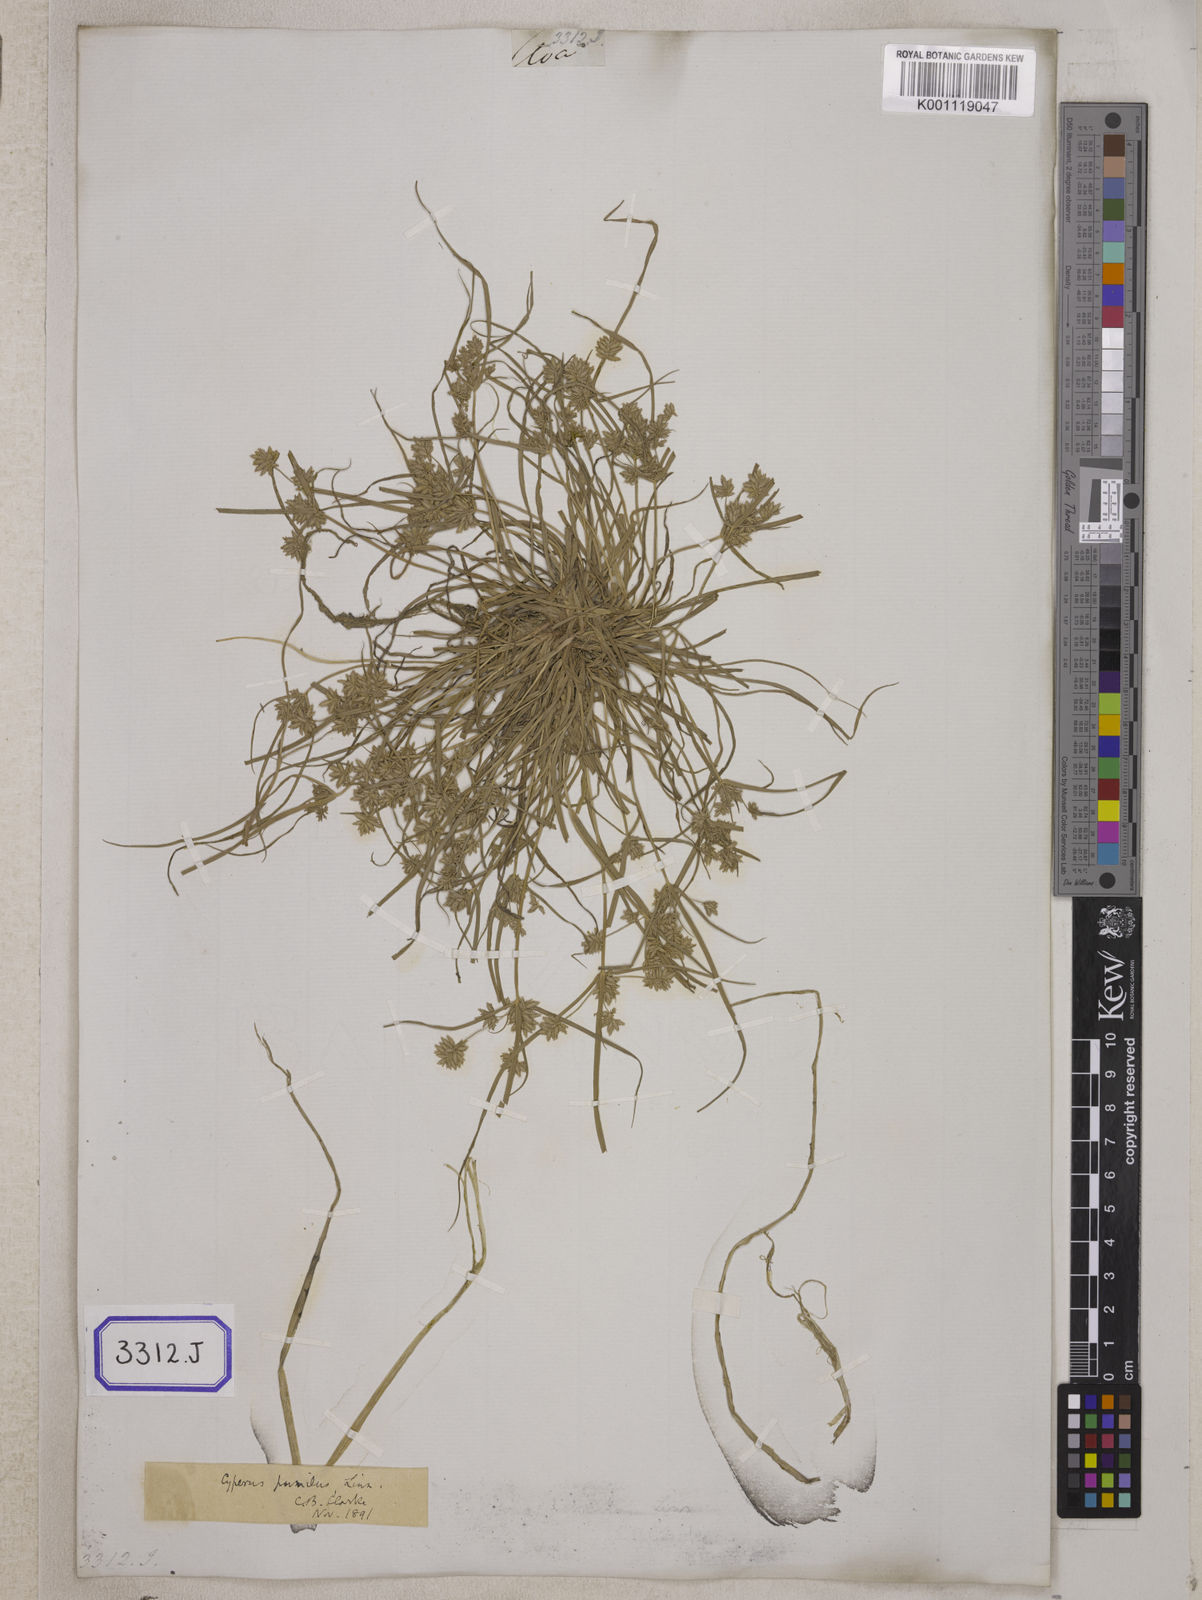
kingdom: Plantae
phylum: Tracheophyta
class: Liliopsida
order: Poales
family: Cyperaceae
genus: Cyperus
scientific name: Cyperus
